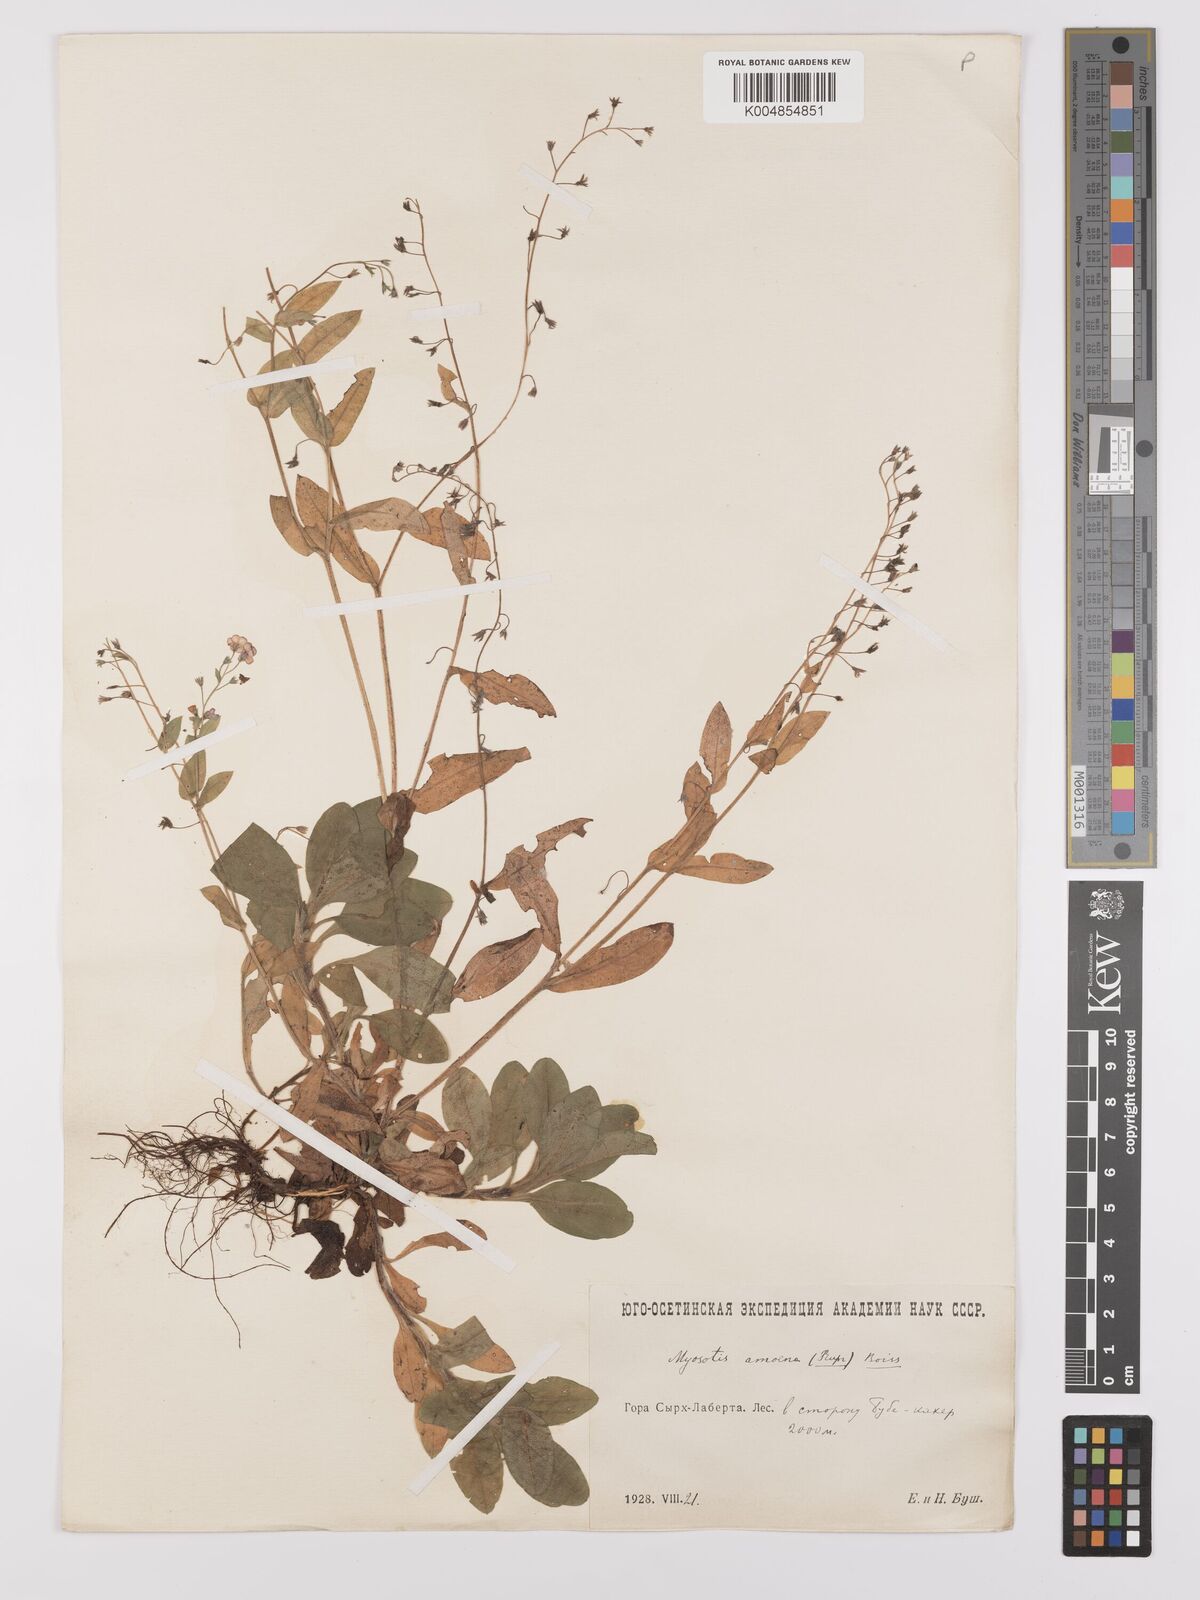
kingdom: Plantae
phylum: Tracheophyta
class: Magnoliopsida
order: Boraginales
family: Boraginaceae
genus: Myosotis
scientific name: Myosotis
